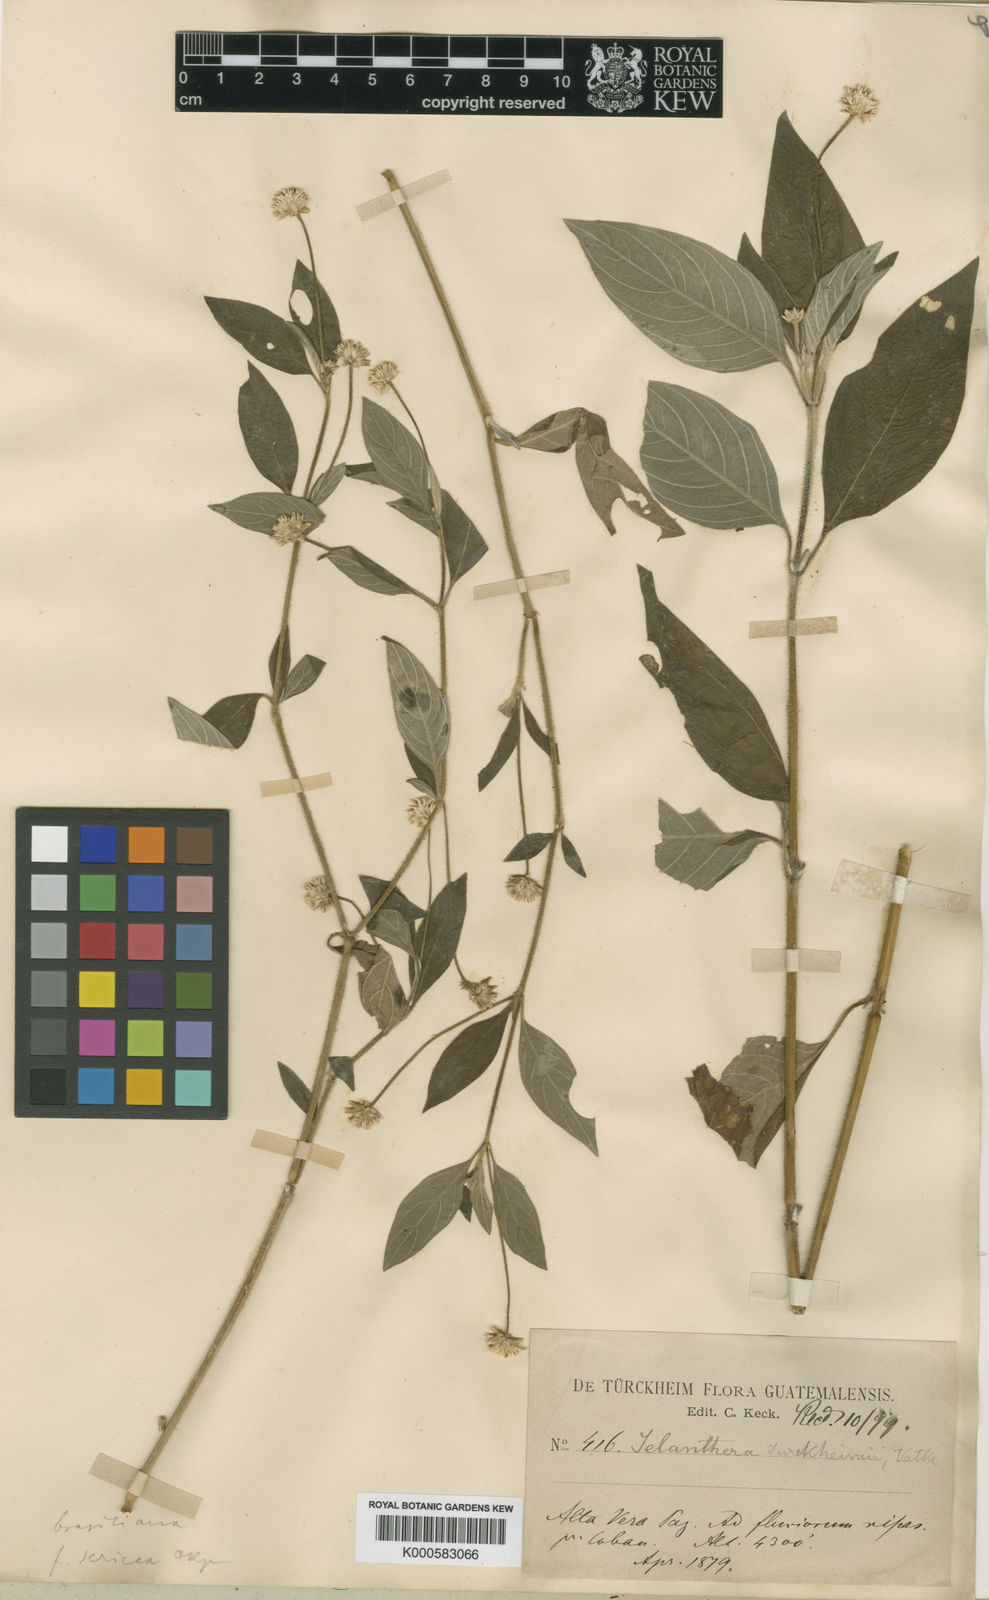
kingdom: Plantae
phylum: Tracheophyta
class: Magnoliopsida
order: Caryophyllales
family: Amaranthaceae
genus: Gomphrena
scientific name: Gomphrena elegans
